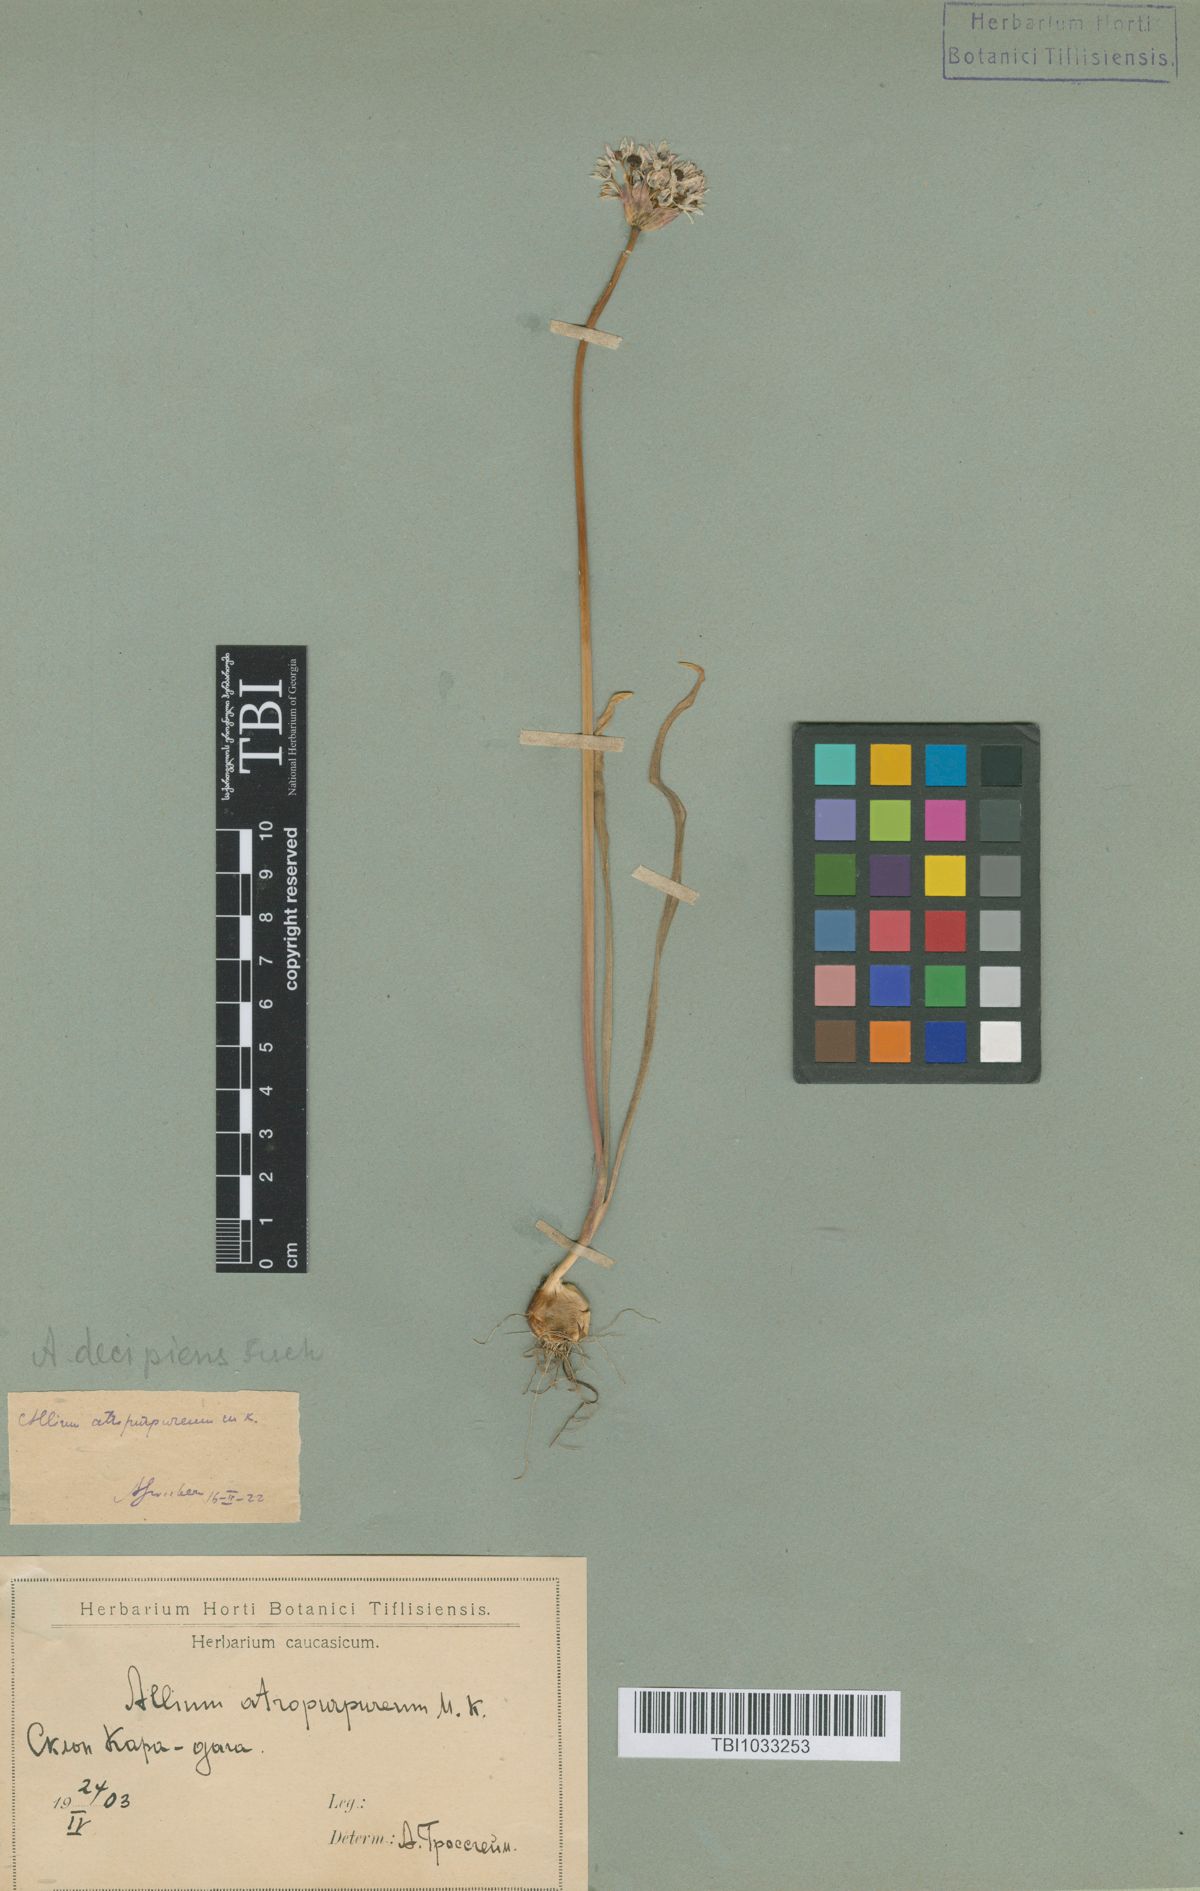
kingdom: Plantae
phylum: Tracheophyta
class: Liliopsida
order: Asparagales
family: Amaryllidaceae
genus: Allium
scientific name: Allium decipiens
